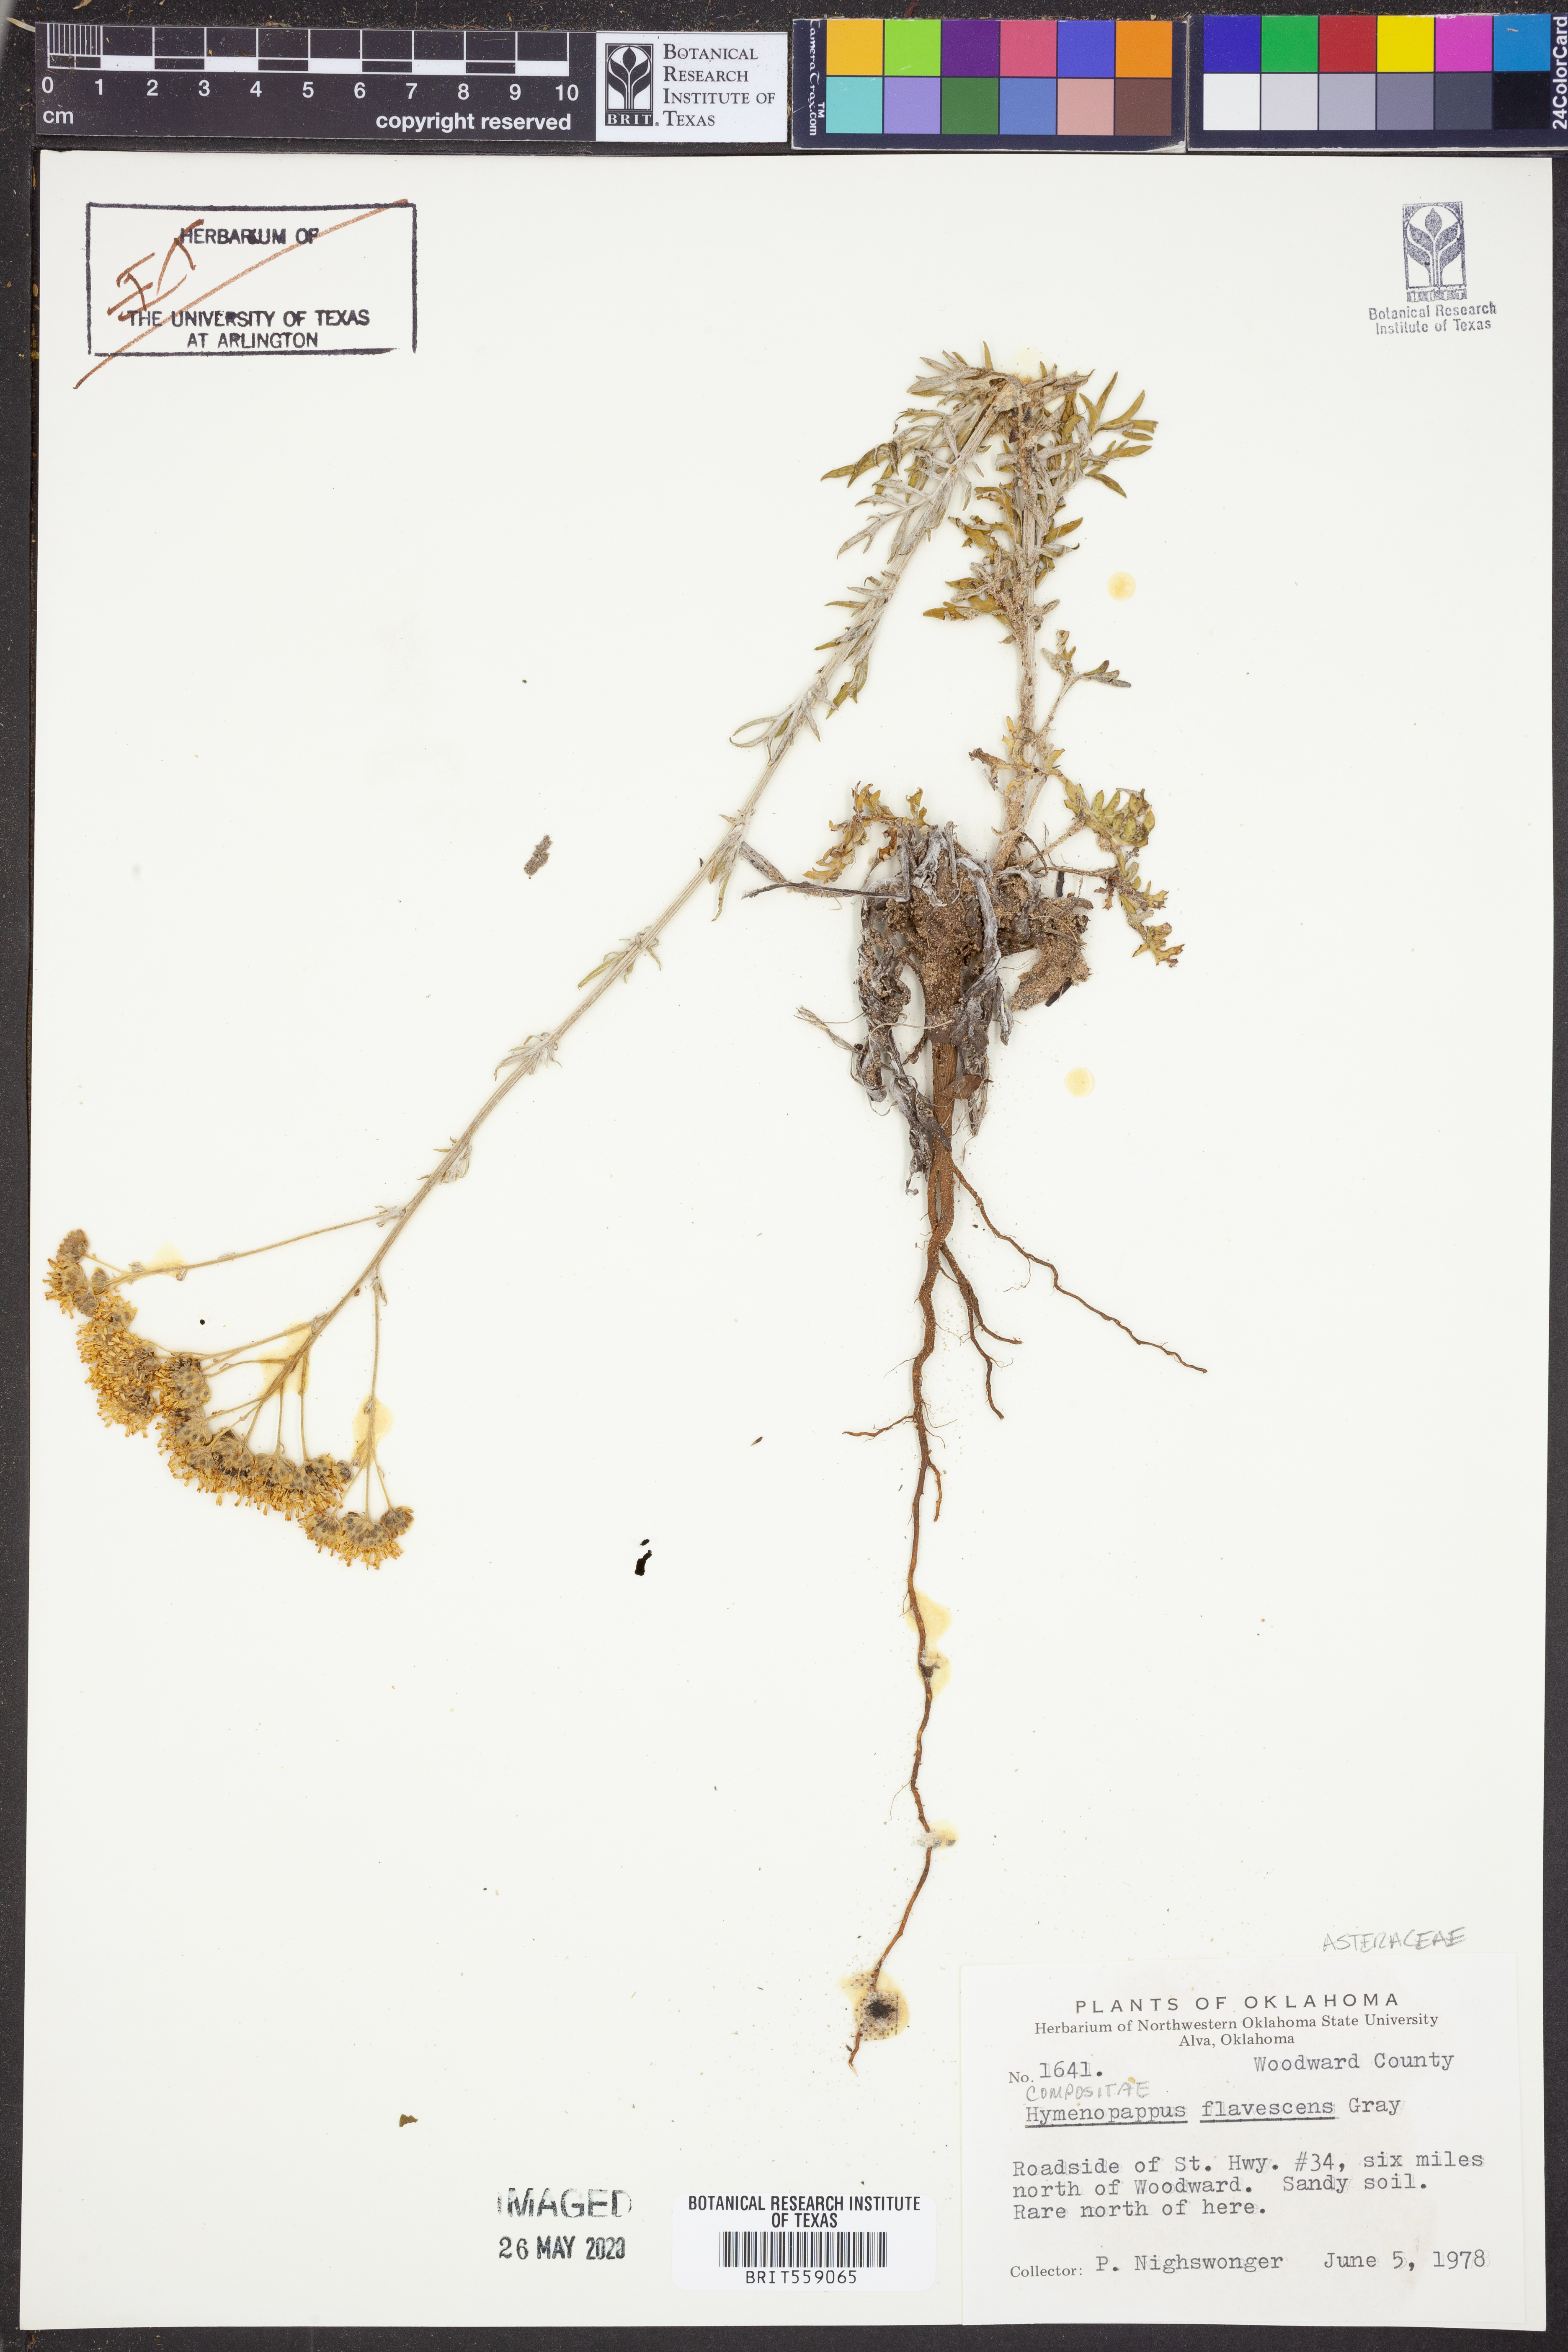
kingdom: Plantae
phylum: Tracheophyta
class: Magnoliopsida
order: Asterales
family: Asteraceae
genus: Hymenopappus
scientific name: Hymenopappus flavescens
